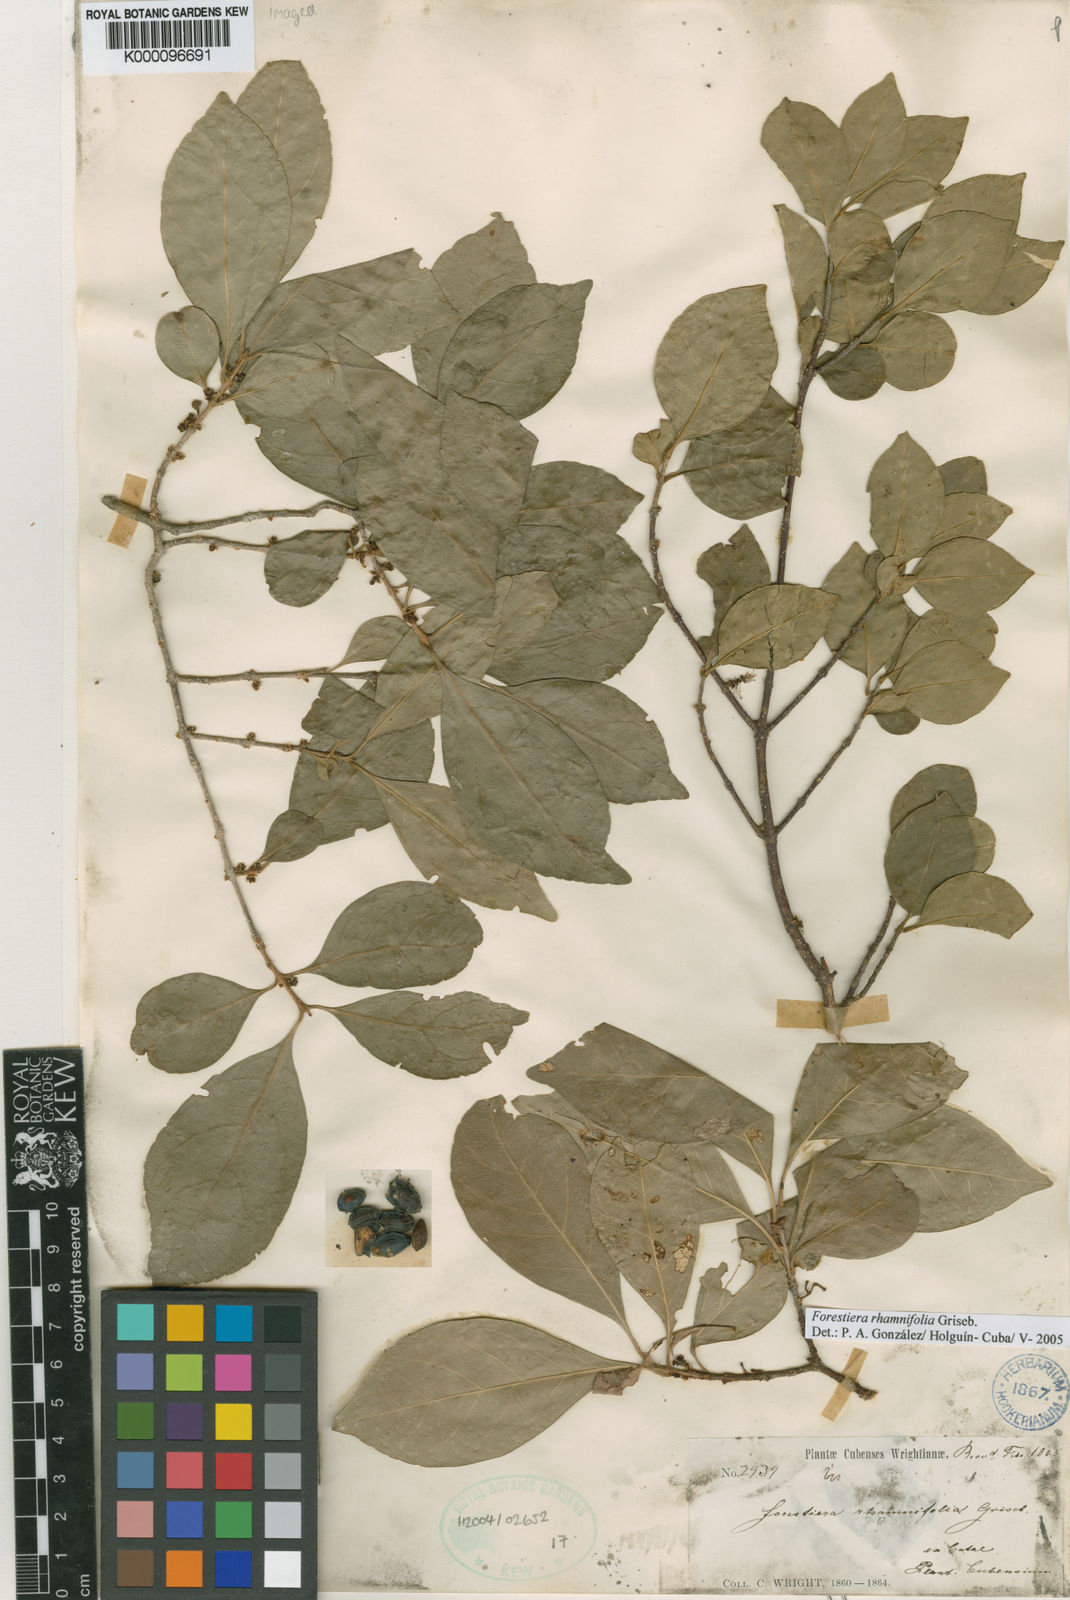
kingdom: Plantae
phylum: Tracheophyta
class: Magnoliopsida
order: Lamiales
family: Oleaceae
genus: Forestiera
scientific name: Forestiera rhamnifolia
